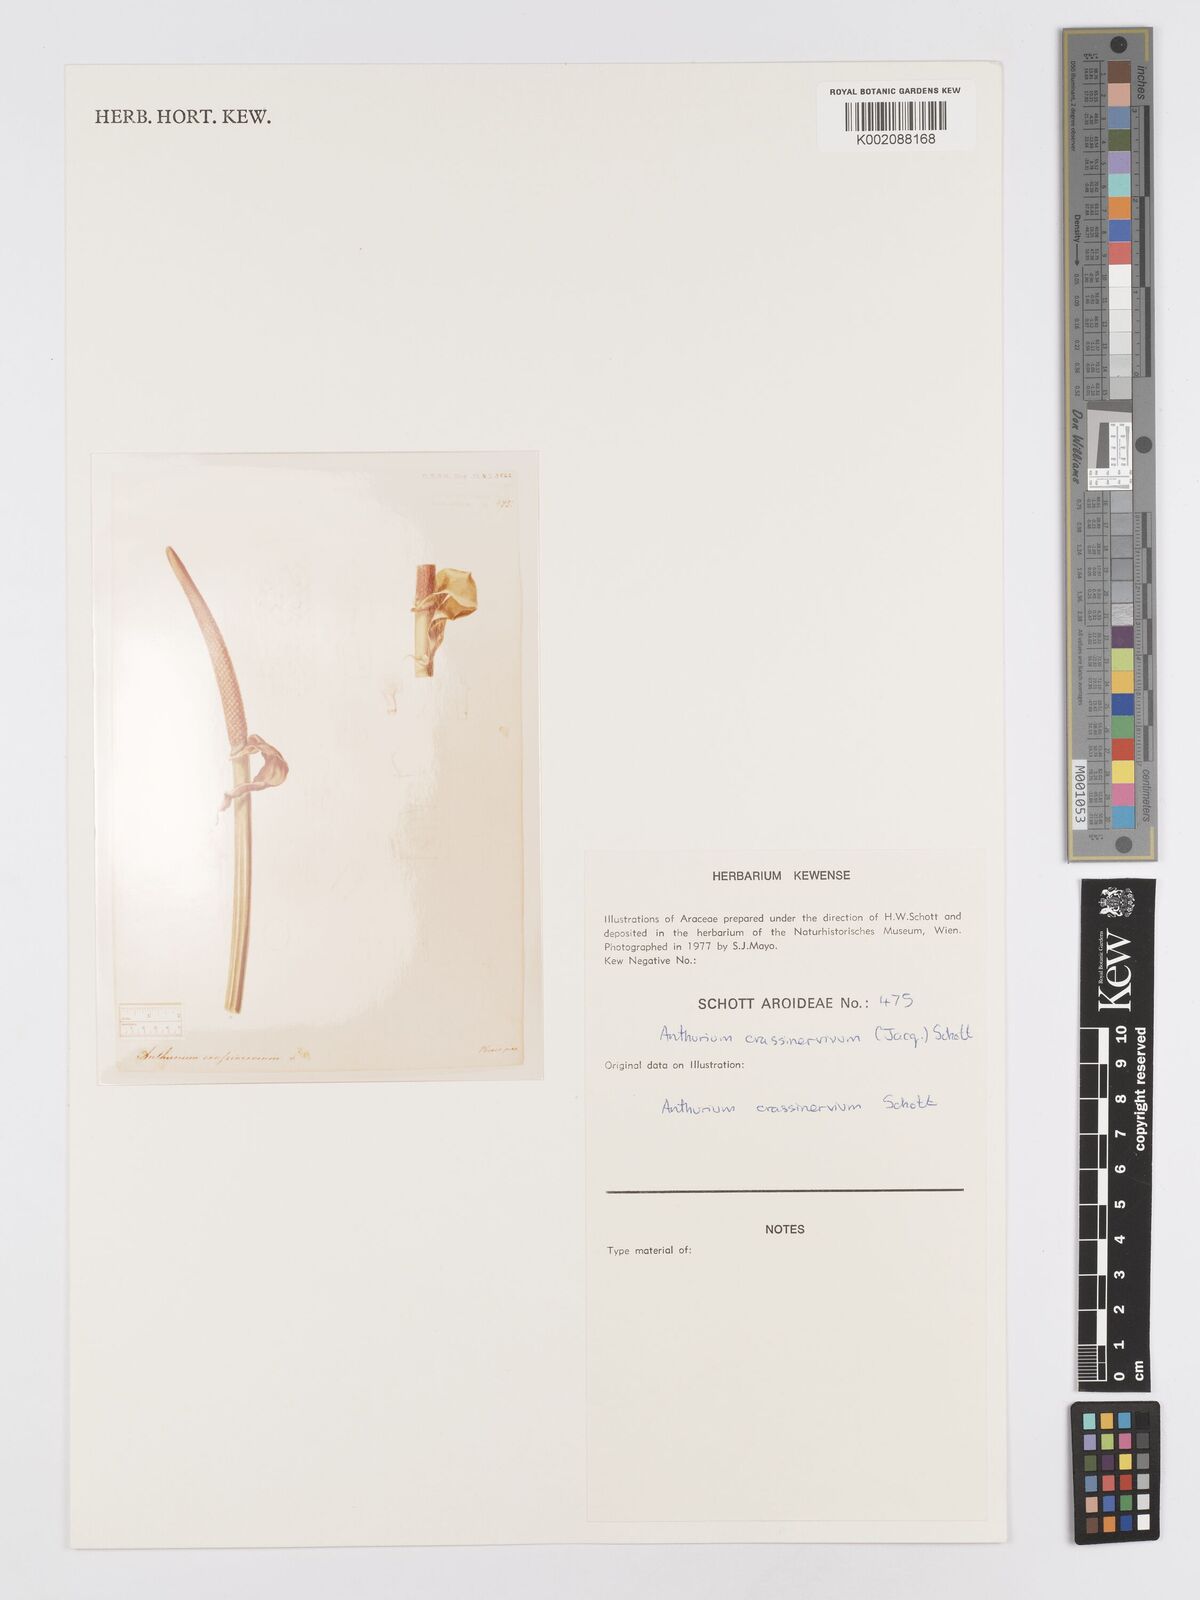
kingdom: Plantae
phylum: Tracheophyta
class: Liliopsida
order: Alismatales
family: Araceae
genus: Anthurium
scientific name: Anthurium crassinervium
